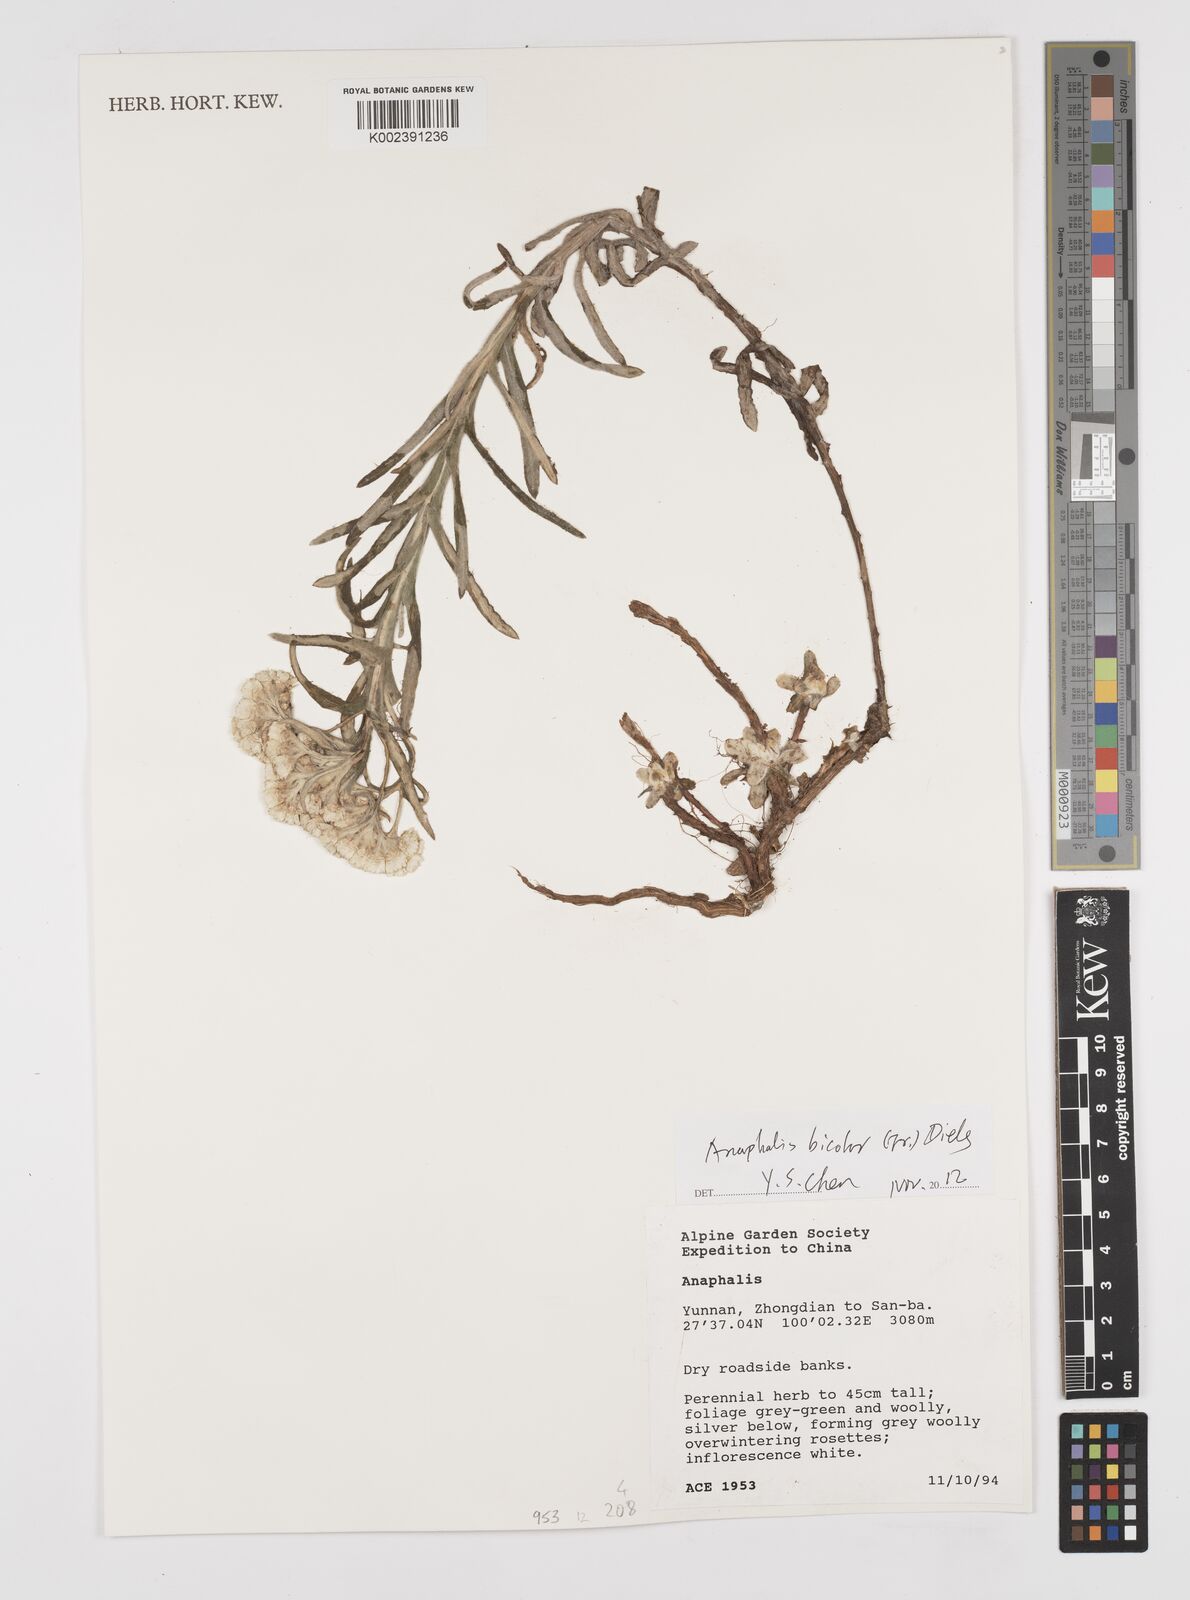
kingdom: Plantae
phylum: Tracheophyta
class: Magnoliopsida
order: Asterales
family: Asteraceae
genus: Anaphalis
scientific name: Anaphalis bicolor
